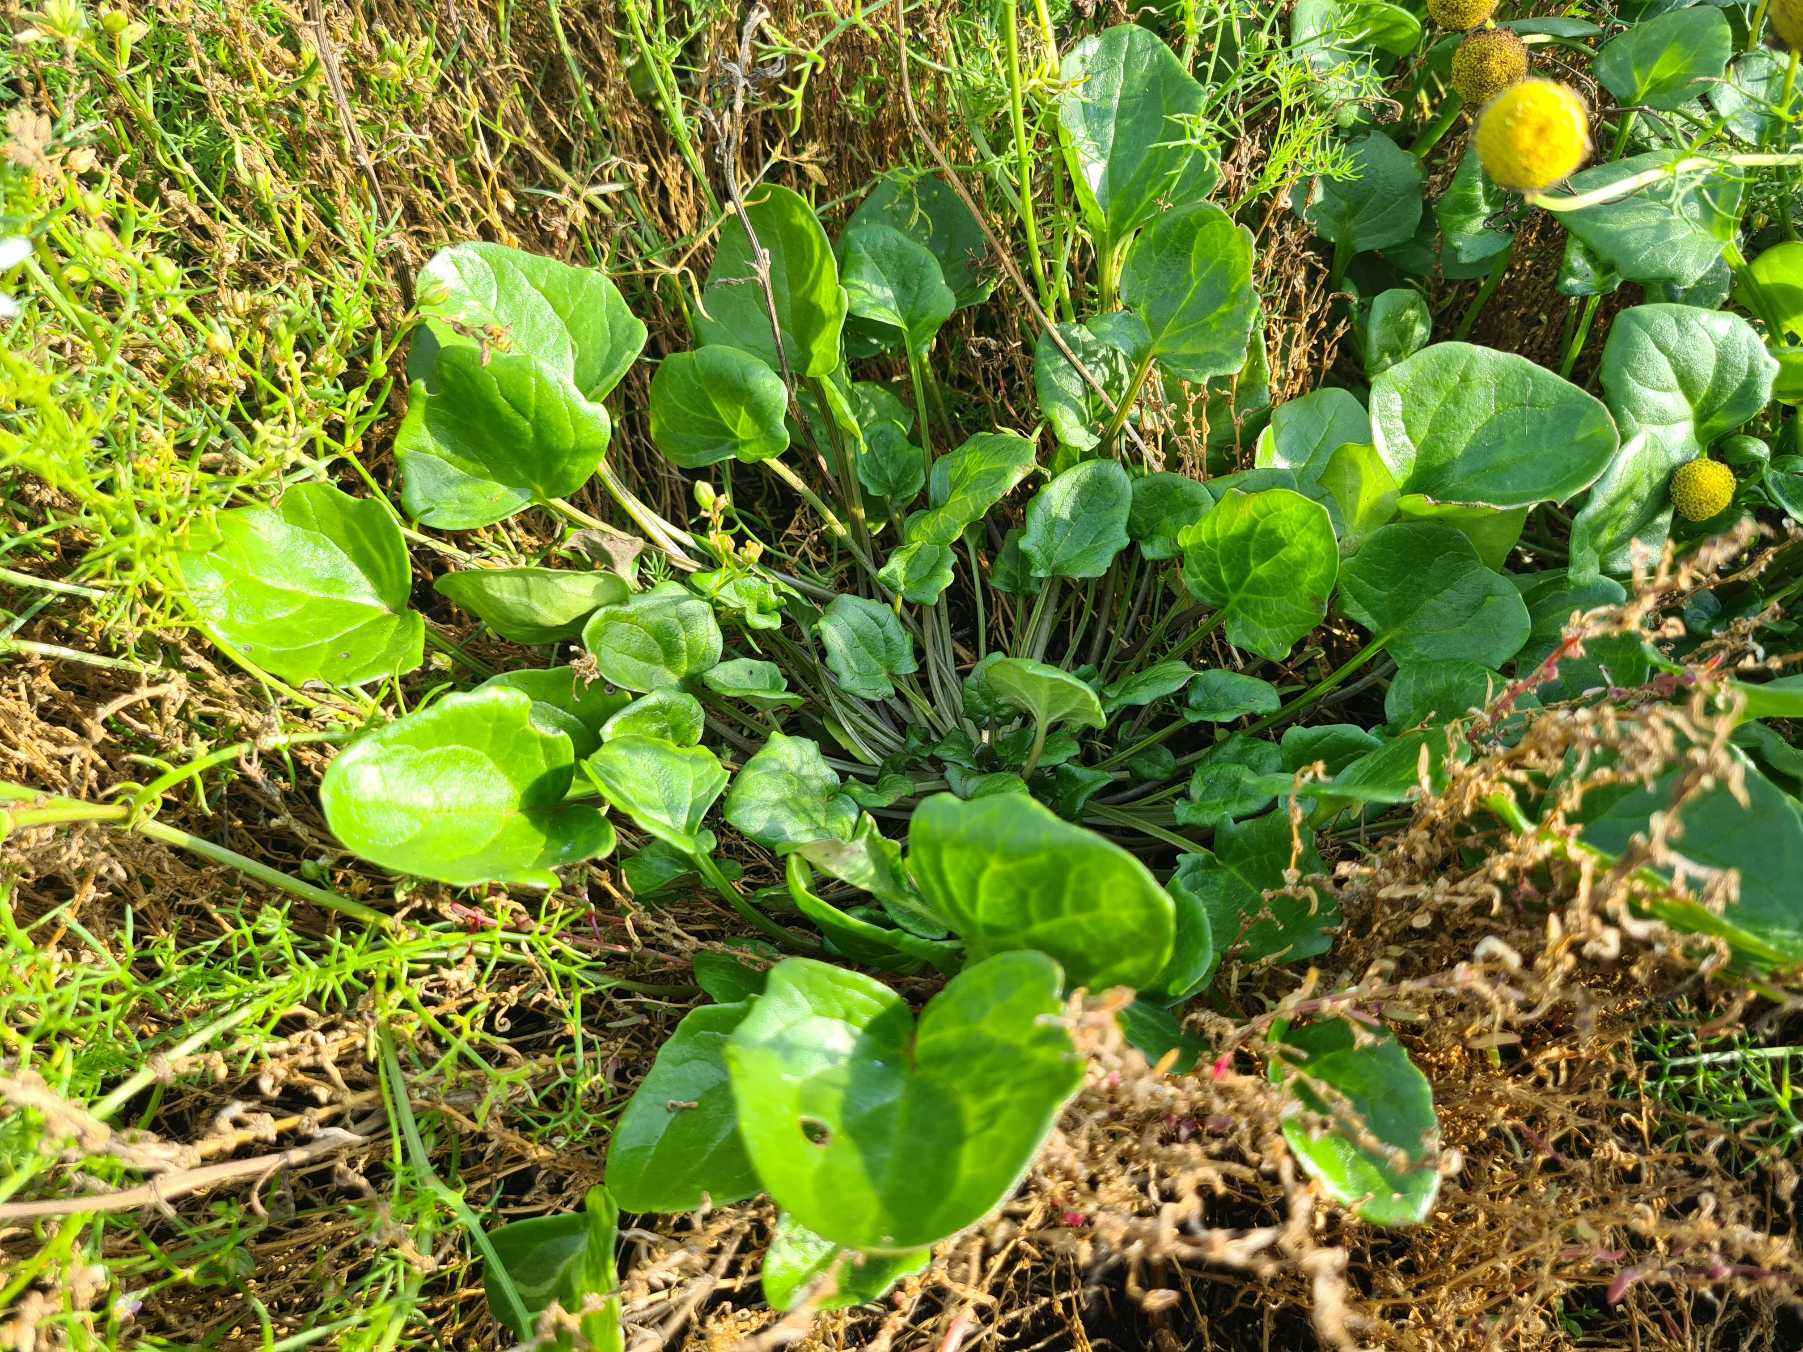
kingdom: Plantae
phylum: Tracheophyta
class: Magnoliopsida
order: Brassicales
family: Brassicaceae
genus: Cochlearia
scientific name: Cochlearia officinalis
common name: Læge-kokleare
